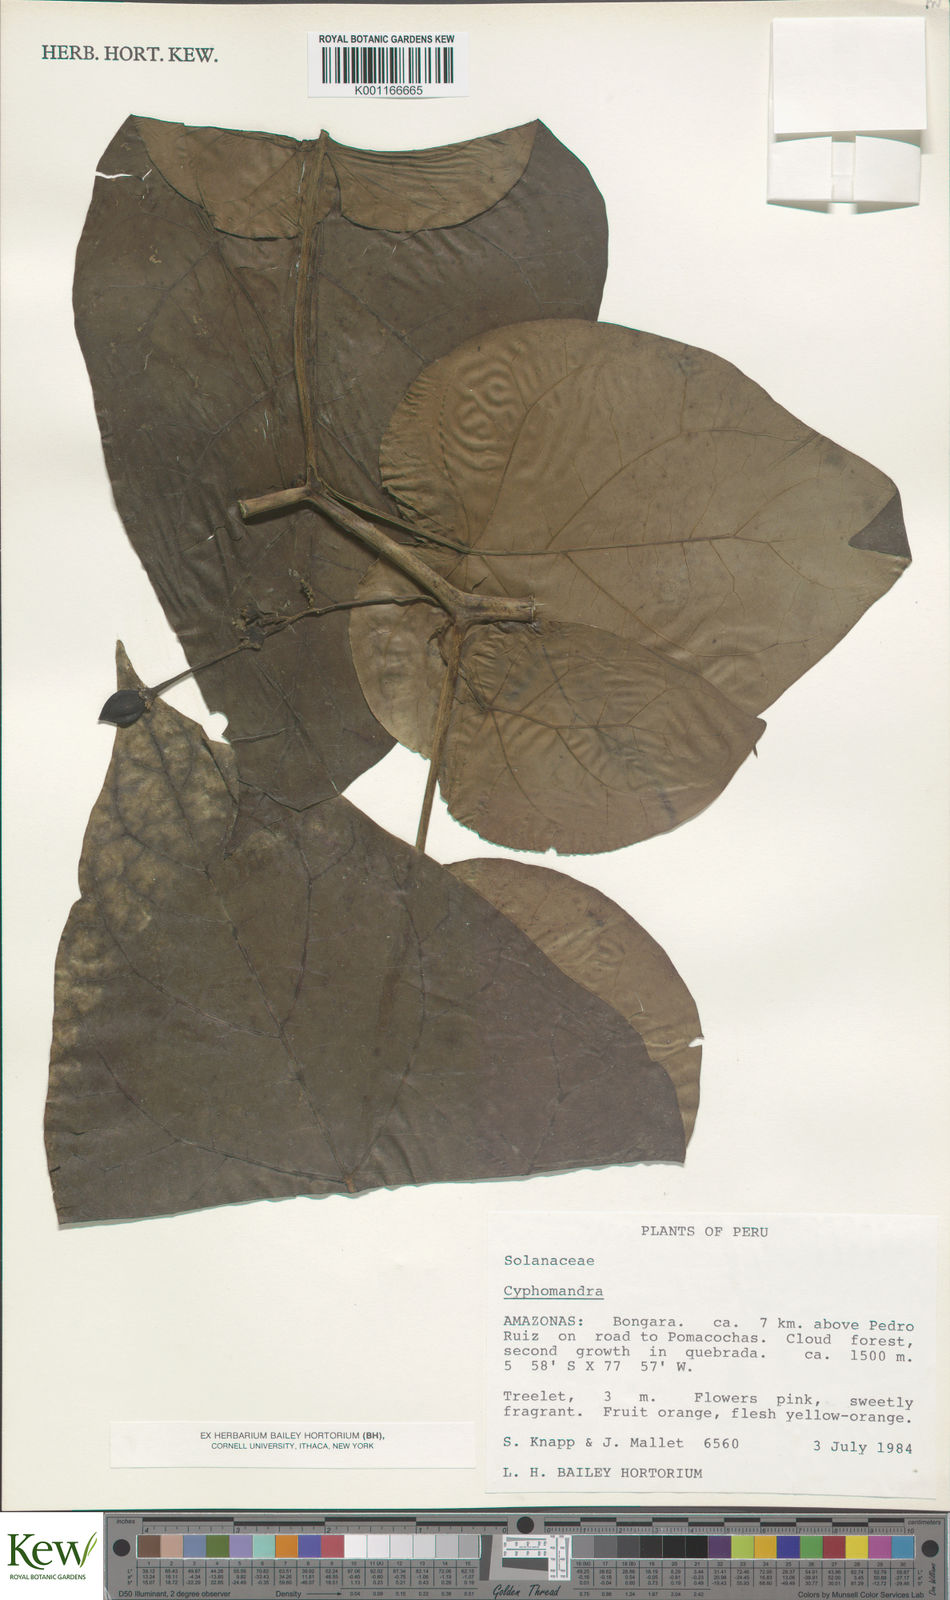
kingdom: Plantae
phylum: Tracheophyta
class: Magnoliopsida
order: Solanales
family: Solanaceae
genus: Solanum
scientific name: Solanum
